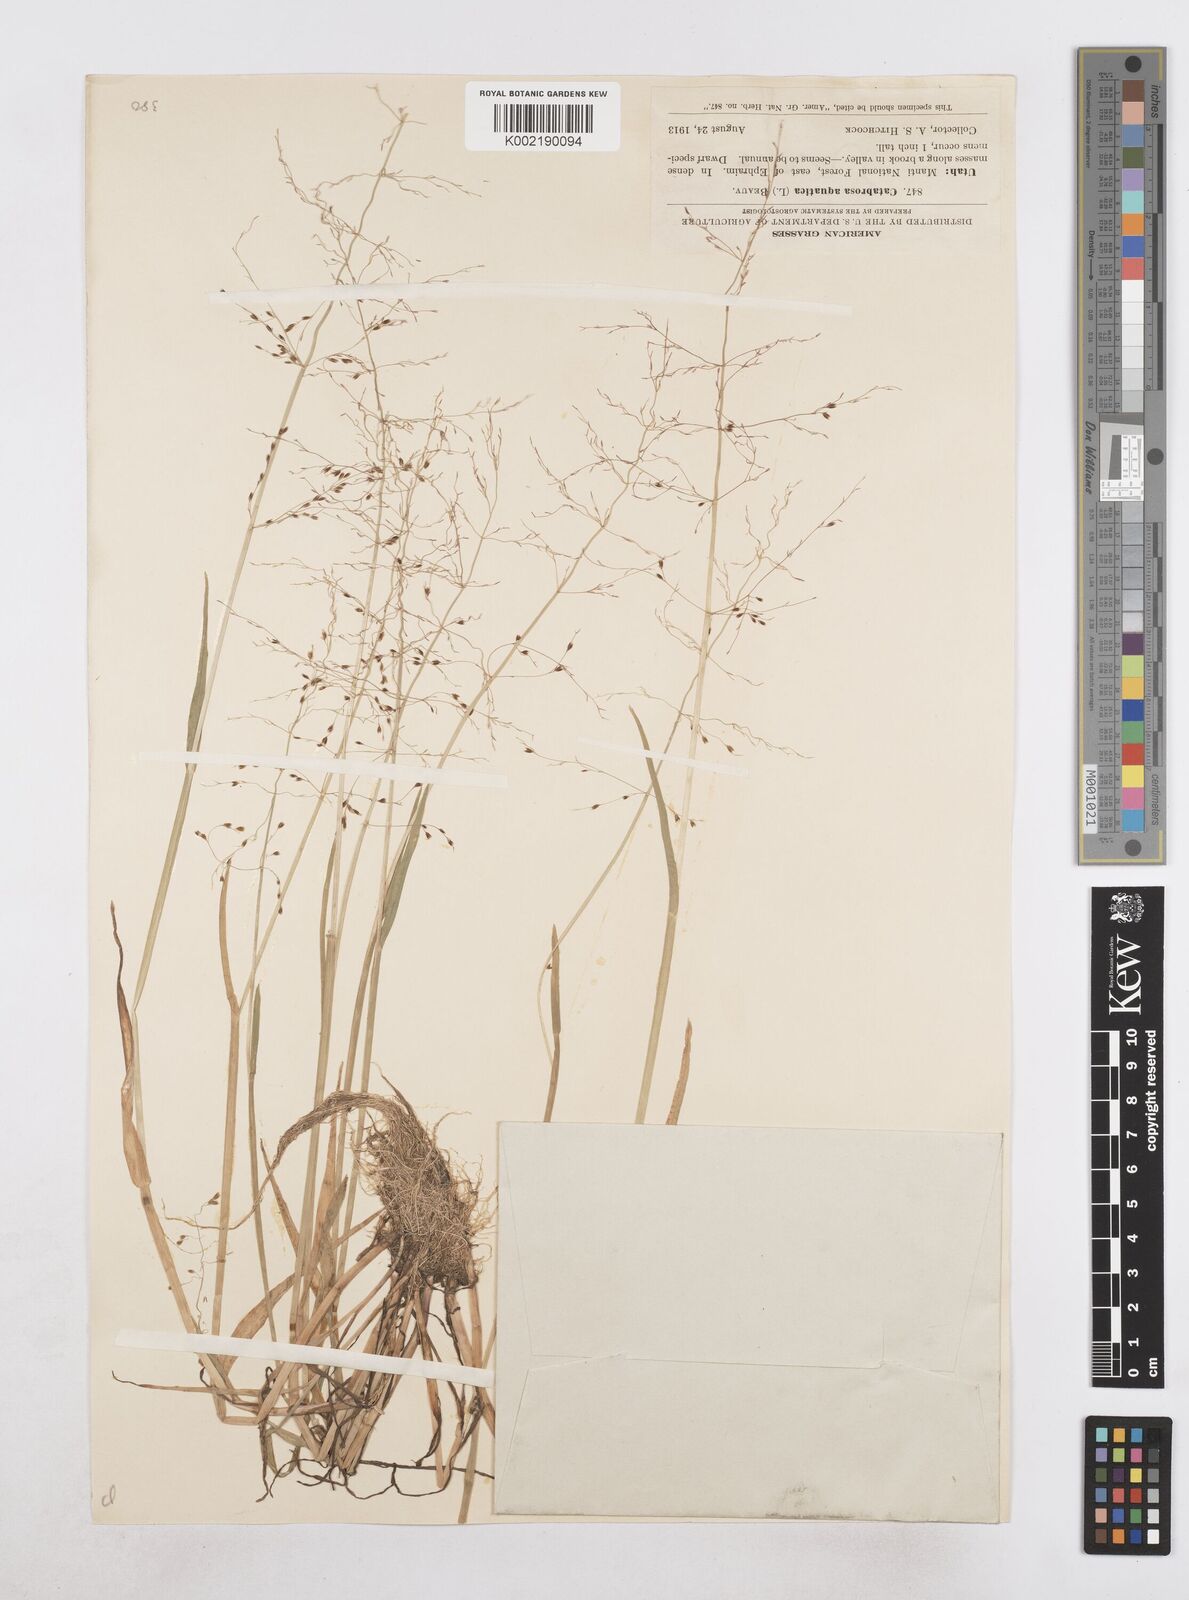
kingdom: Plantae
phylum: Tracheophyta
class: Liliopsida
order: Poales
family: Poaceae
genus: Catabrosa
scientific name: Catabrosa aquatica
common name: Whorl-grass
